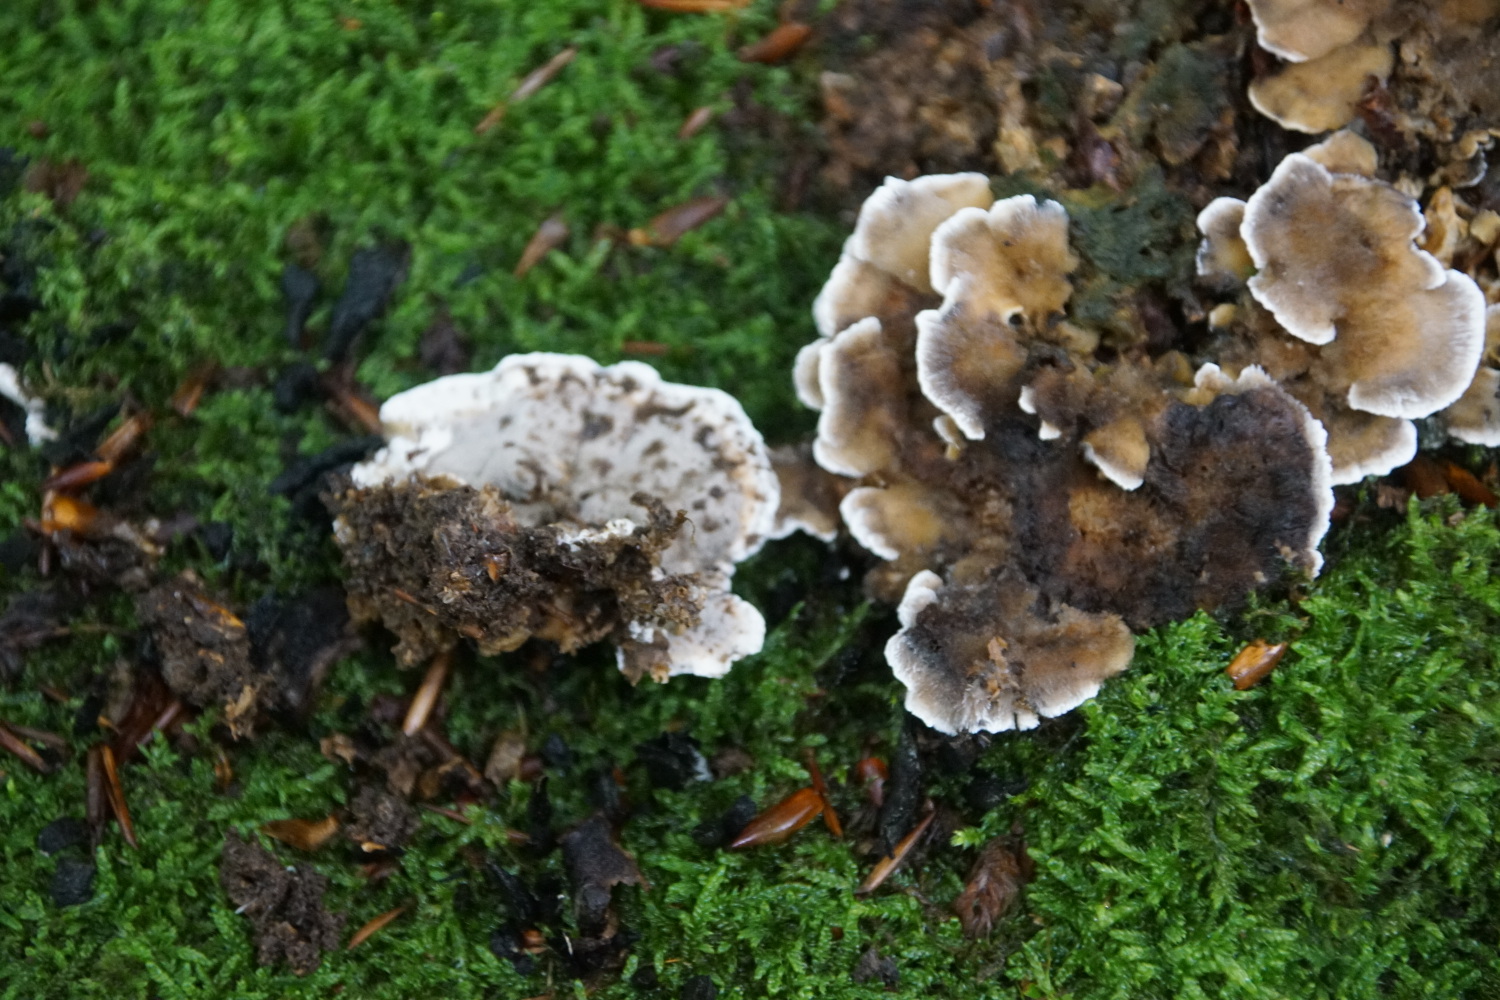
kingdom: Fungi
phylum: Basidiomycota
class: Agaricomycetes
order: Polyporales
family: Phanerochaetaceae
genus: Bjerkandera
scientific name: Bjerkandera adusta
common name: sveden sodporesvamp
